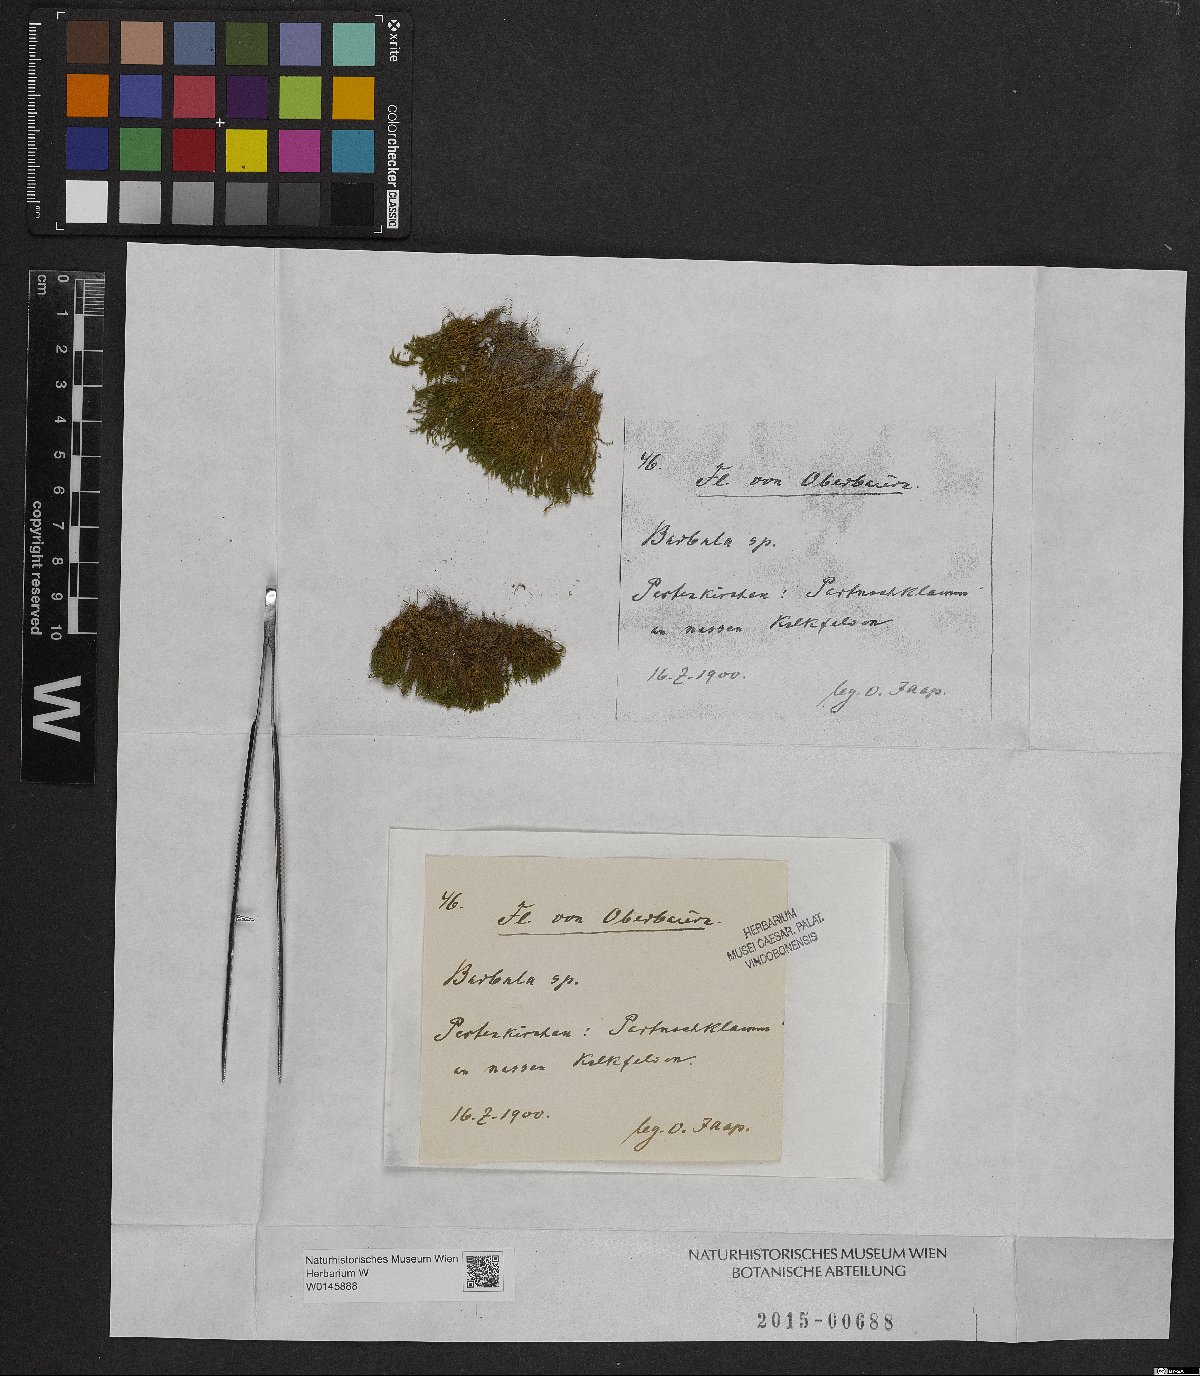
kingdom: Plantae
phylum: Bryophyta
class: Bryopsida
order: Pottiales
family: Pottiaceae
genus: Barbula
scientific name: Barbula
